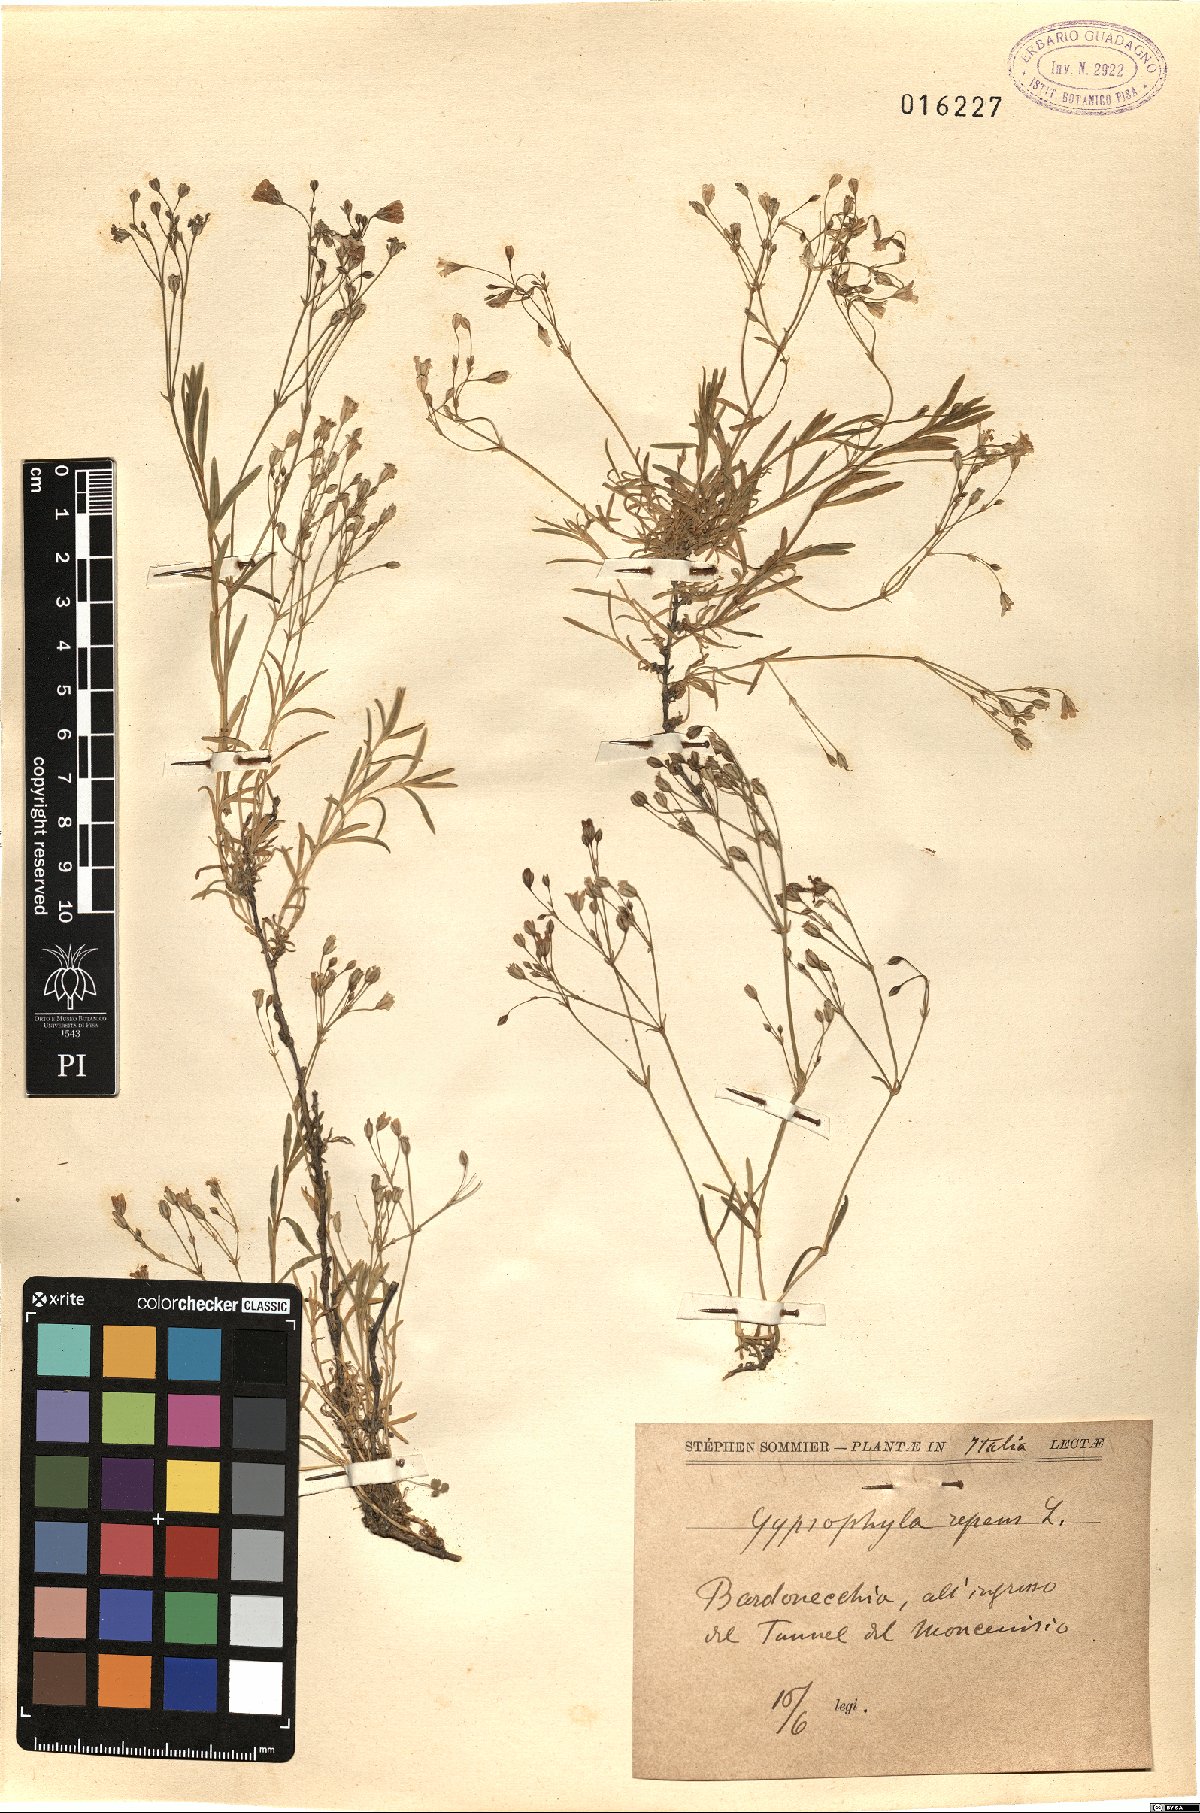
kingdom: Plantae
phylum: Tracheophyta
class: Magnoliopsida
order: Caryophyllales
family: Caryophyllaceae
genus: Gypsophila
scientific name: Gypsophila repens
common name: Creeping baby's-breath
